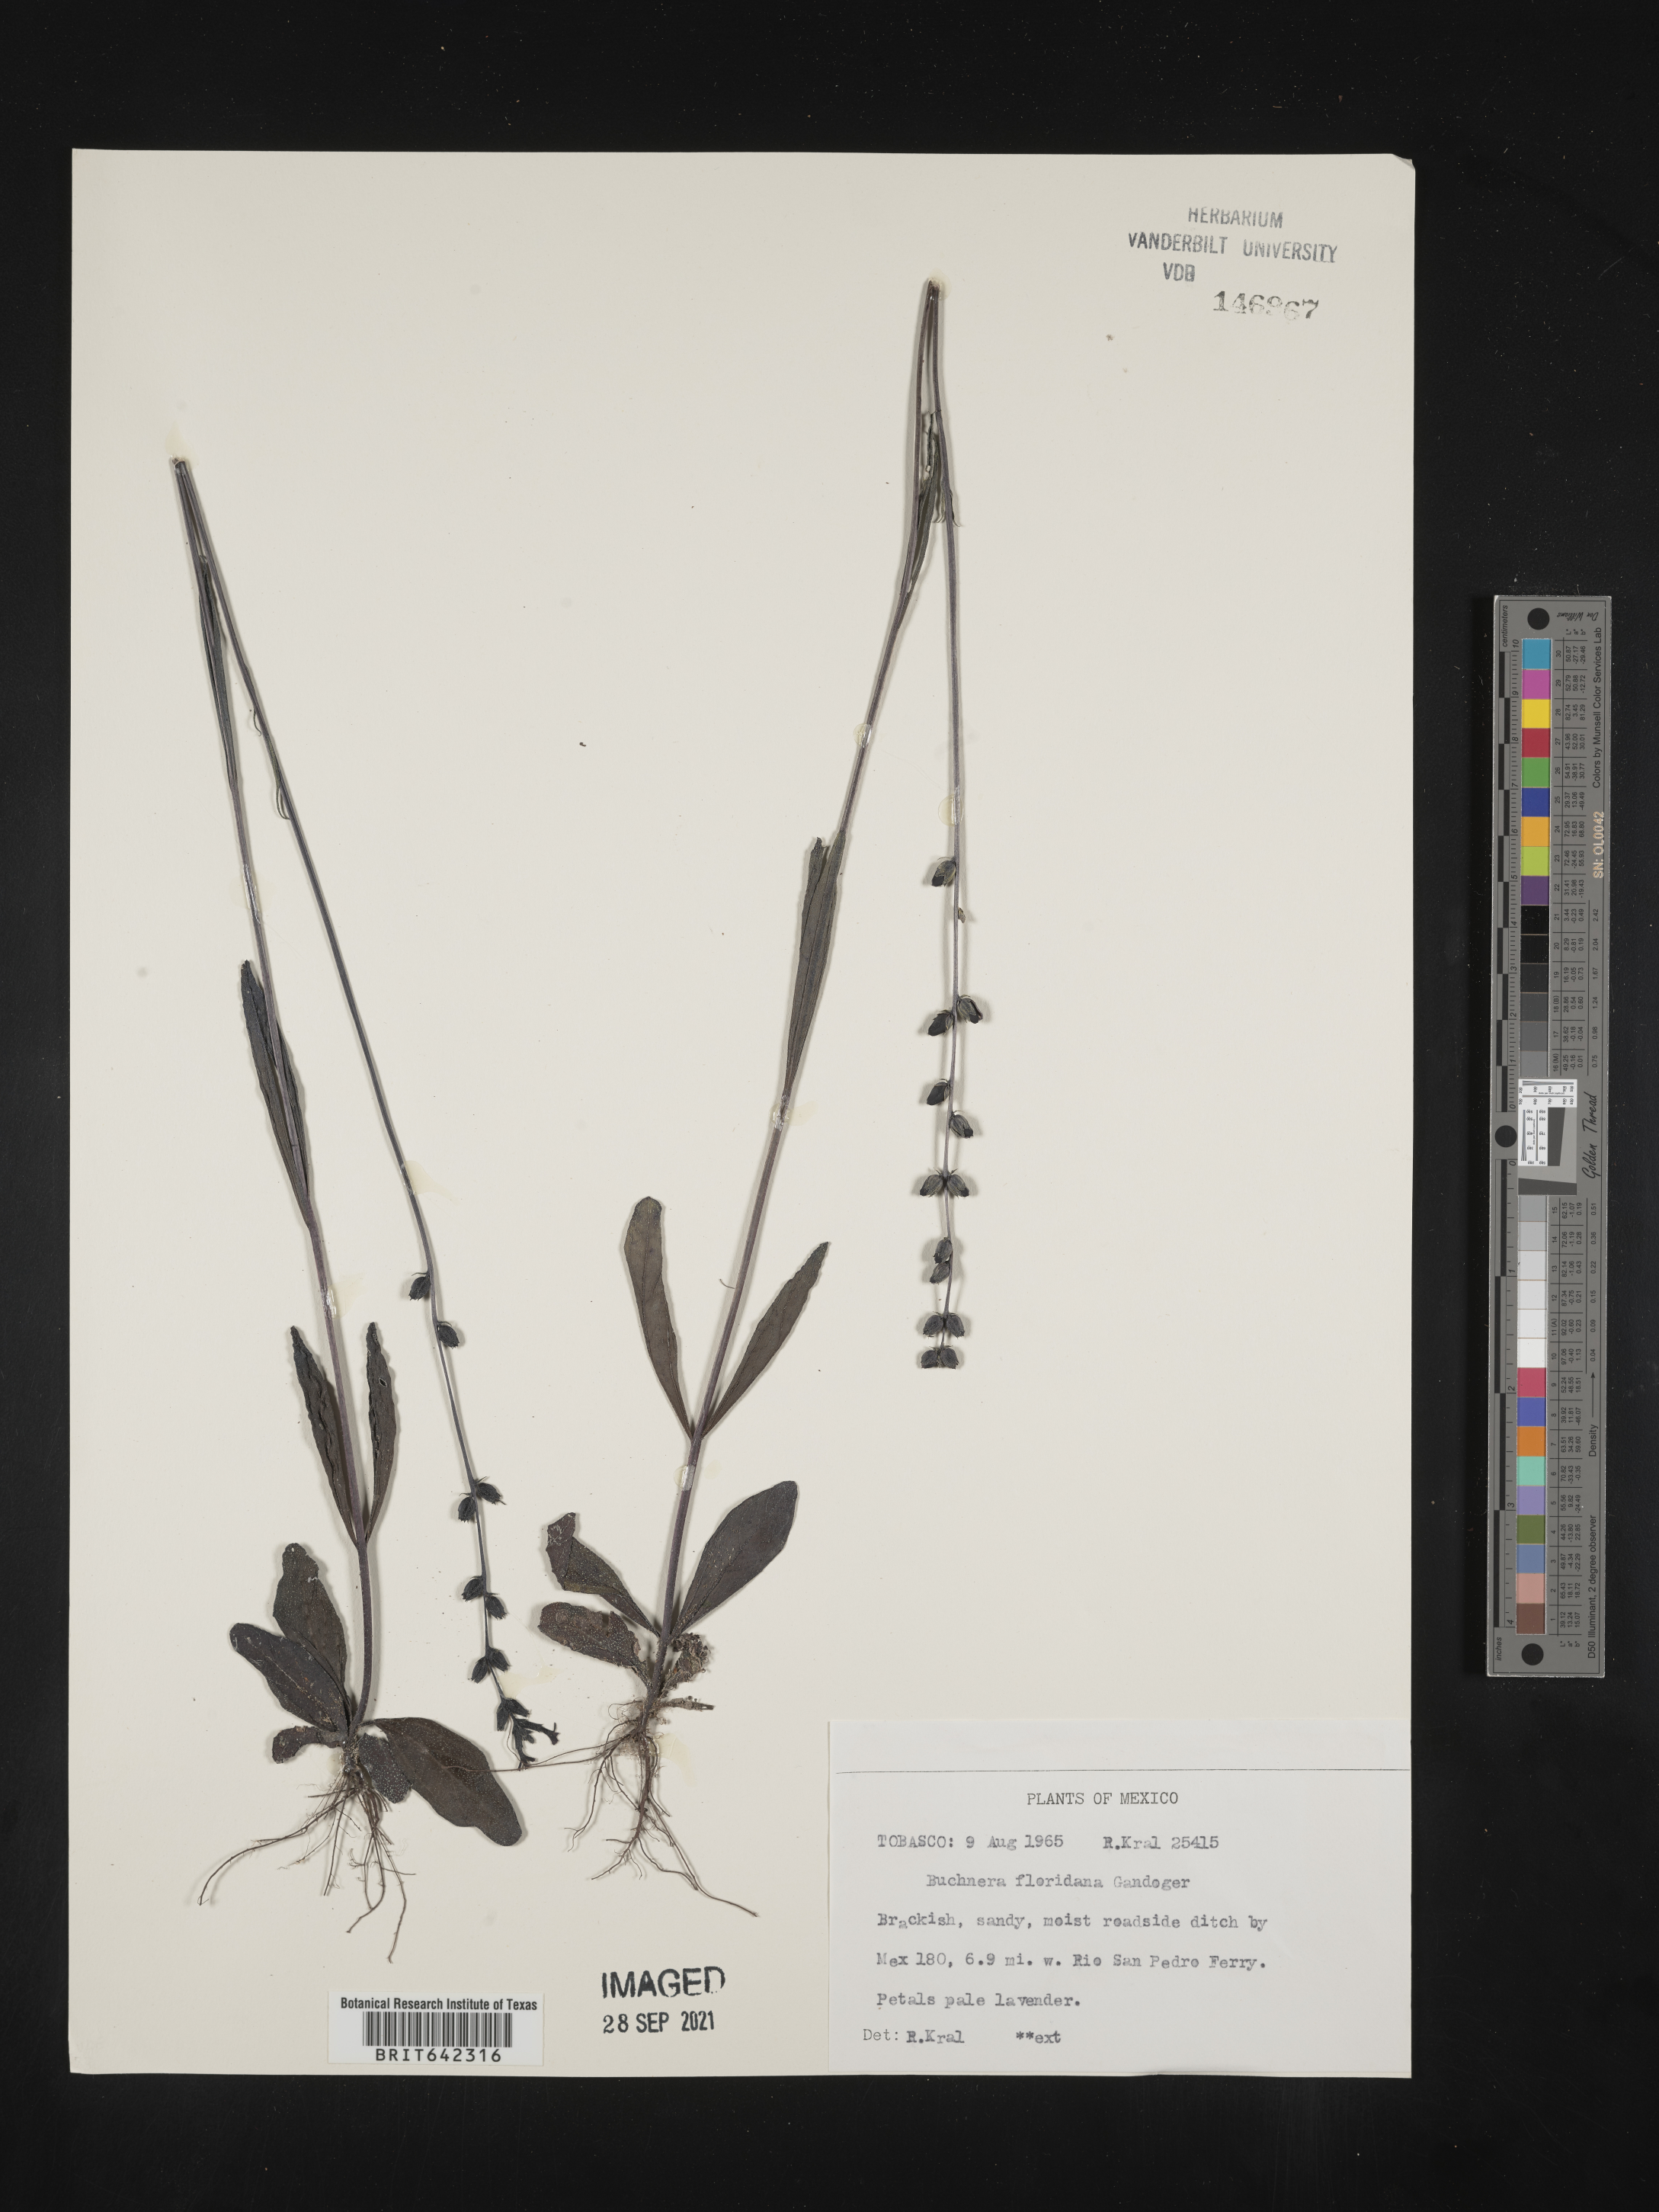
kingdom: Plantae
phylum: Tracheophyta
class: Magnoliopsida
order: Lamiales
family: Orobanchaceae
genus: Buchnera
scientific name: Buchnera
